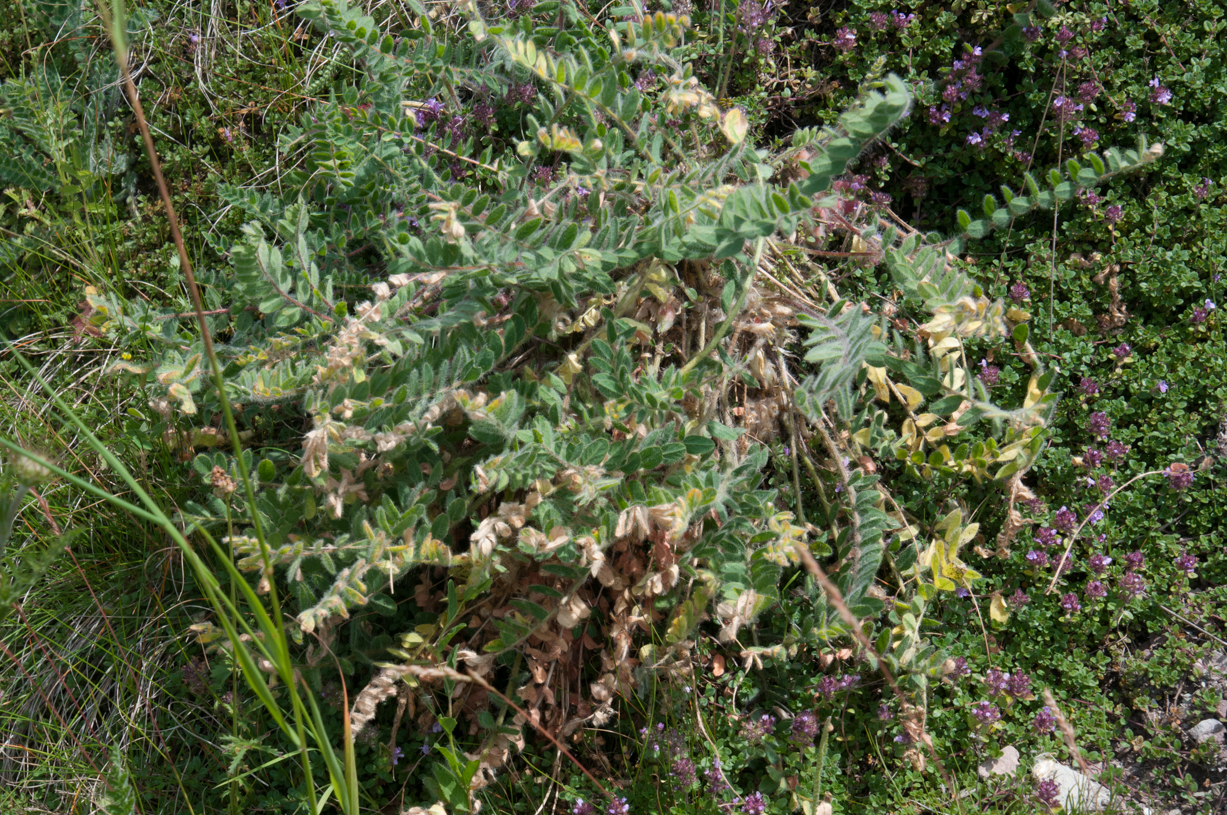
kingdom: Plantae
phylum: Tracheophyta
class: Magnoliopsida
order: Fabales
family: Fabaceae
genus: Astragalus
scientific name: Astragalus exscapus
